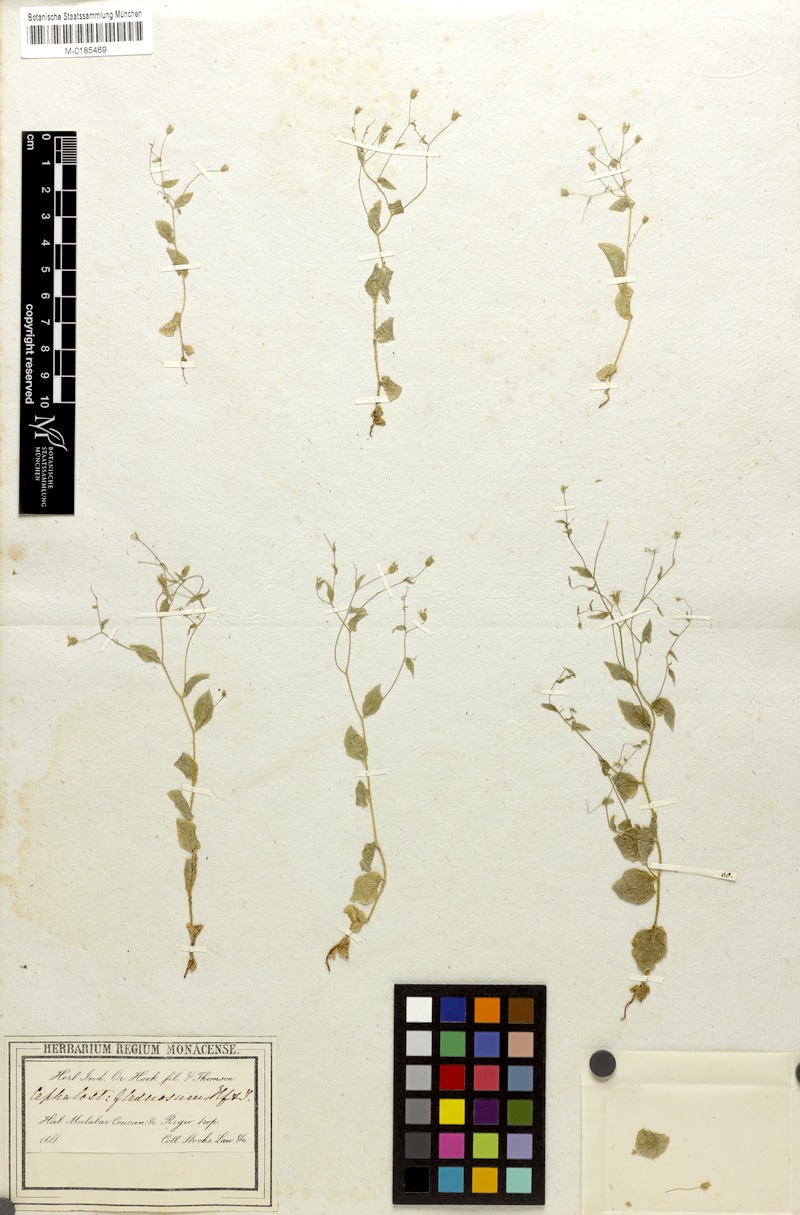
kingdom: Plantae
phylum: Tracheophyta
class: Magnoliopsida
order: Asterales
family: Campanulaceae
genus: Wahlenbergia
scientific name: Wahlenbergia flexuosa
